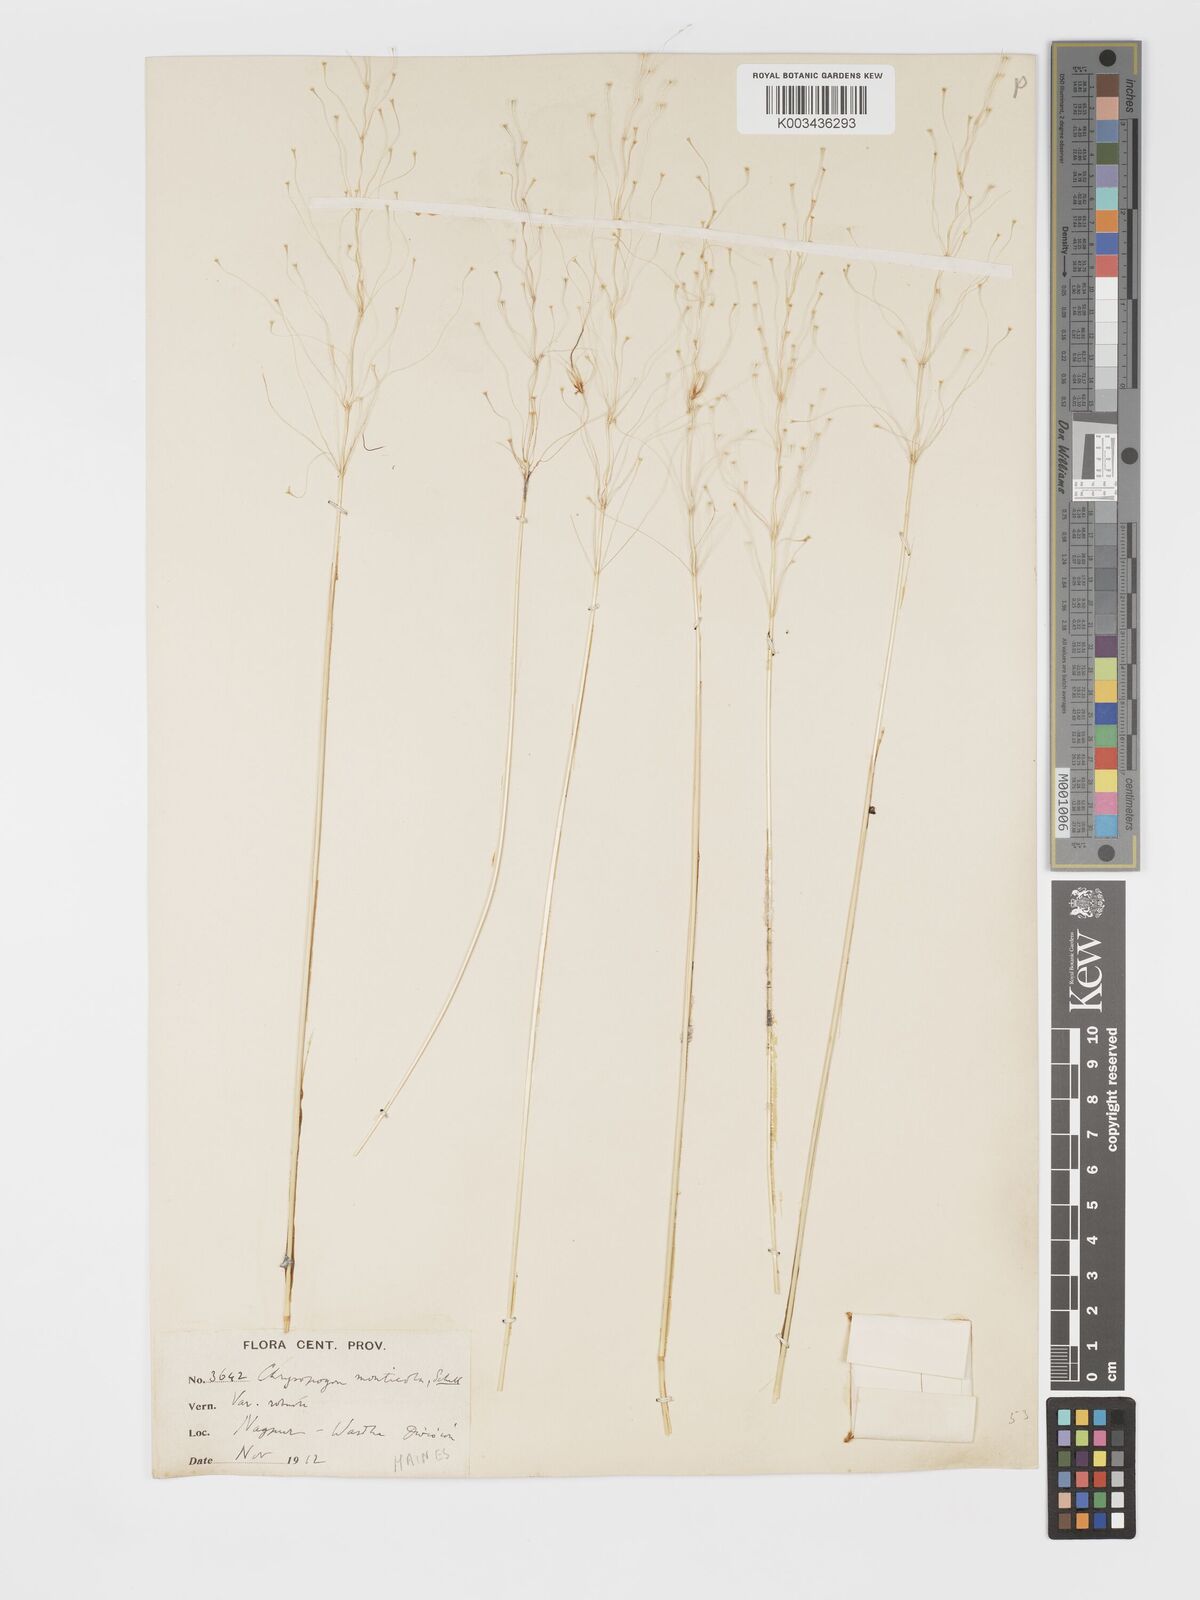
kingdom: Plantae
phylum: Tracheophyta
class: Liliopsida
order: Poales
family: Poaceae
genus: Chrysopogon
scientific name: Chrysopogon fulvus
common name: Red false beardgrass
